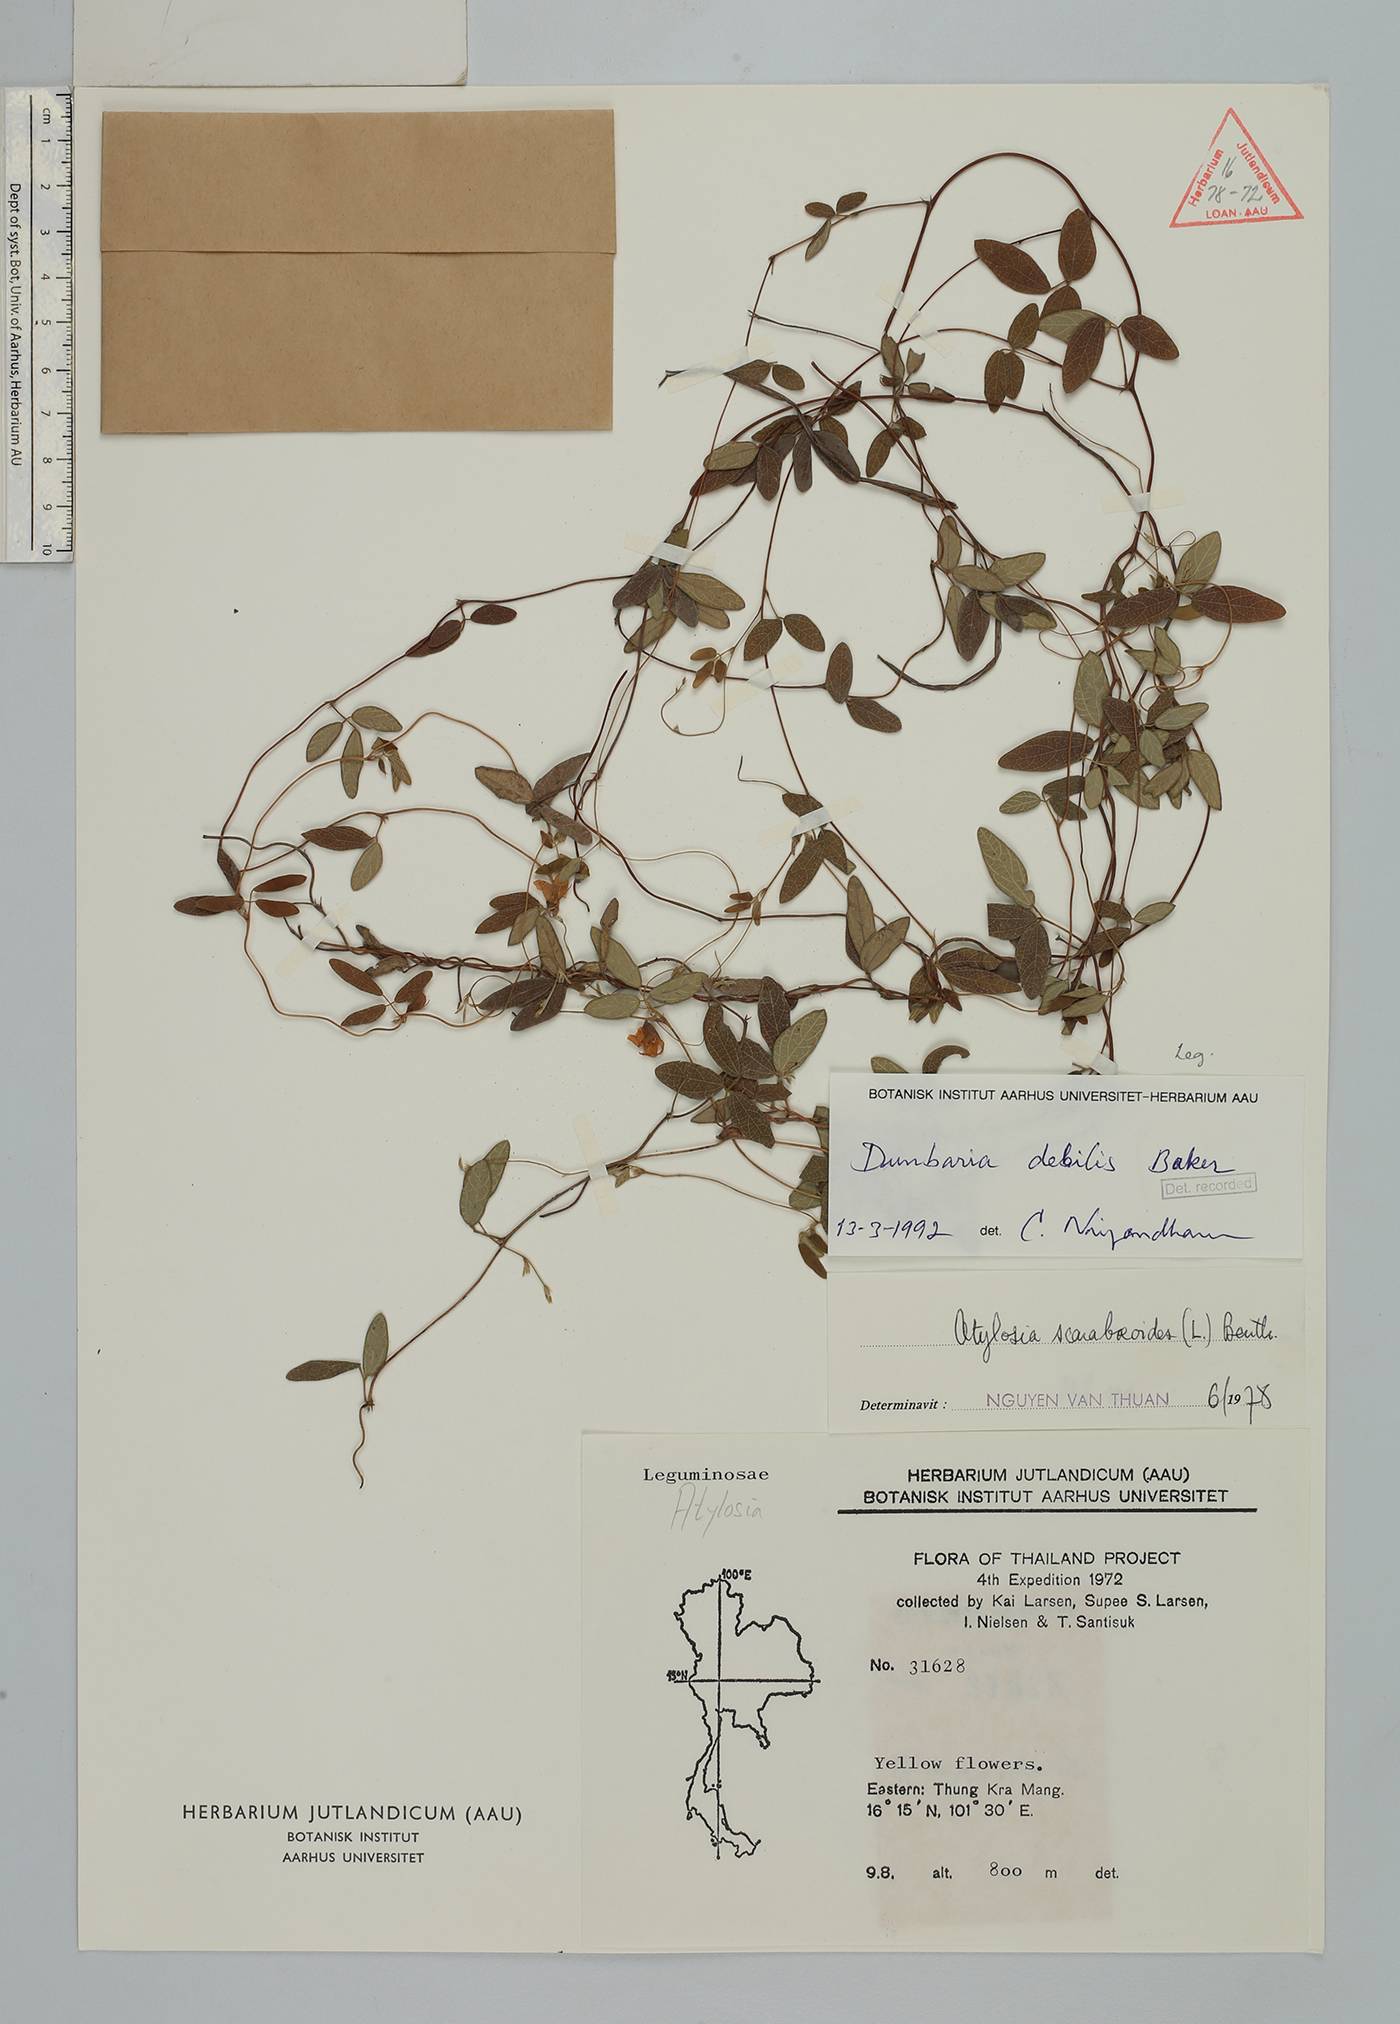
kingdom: Plantae
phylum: Tracheophyta
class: Magnoliopsida
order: Fabales
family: Fabaceae
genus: Dunbaria
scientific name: Dunbaria debilis
